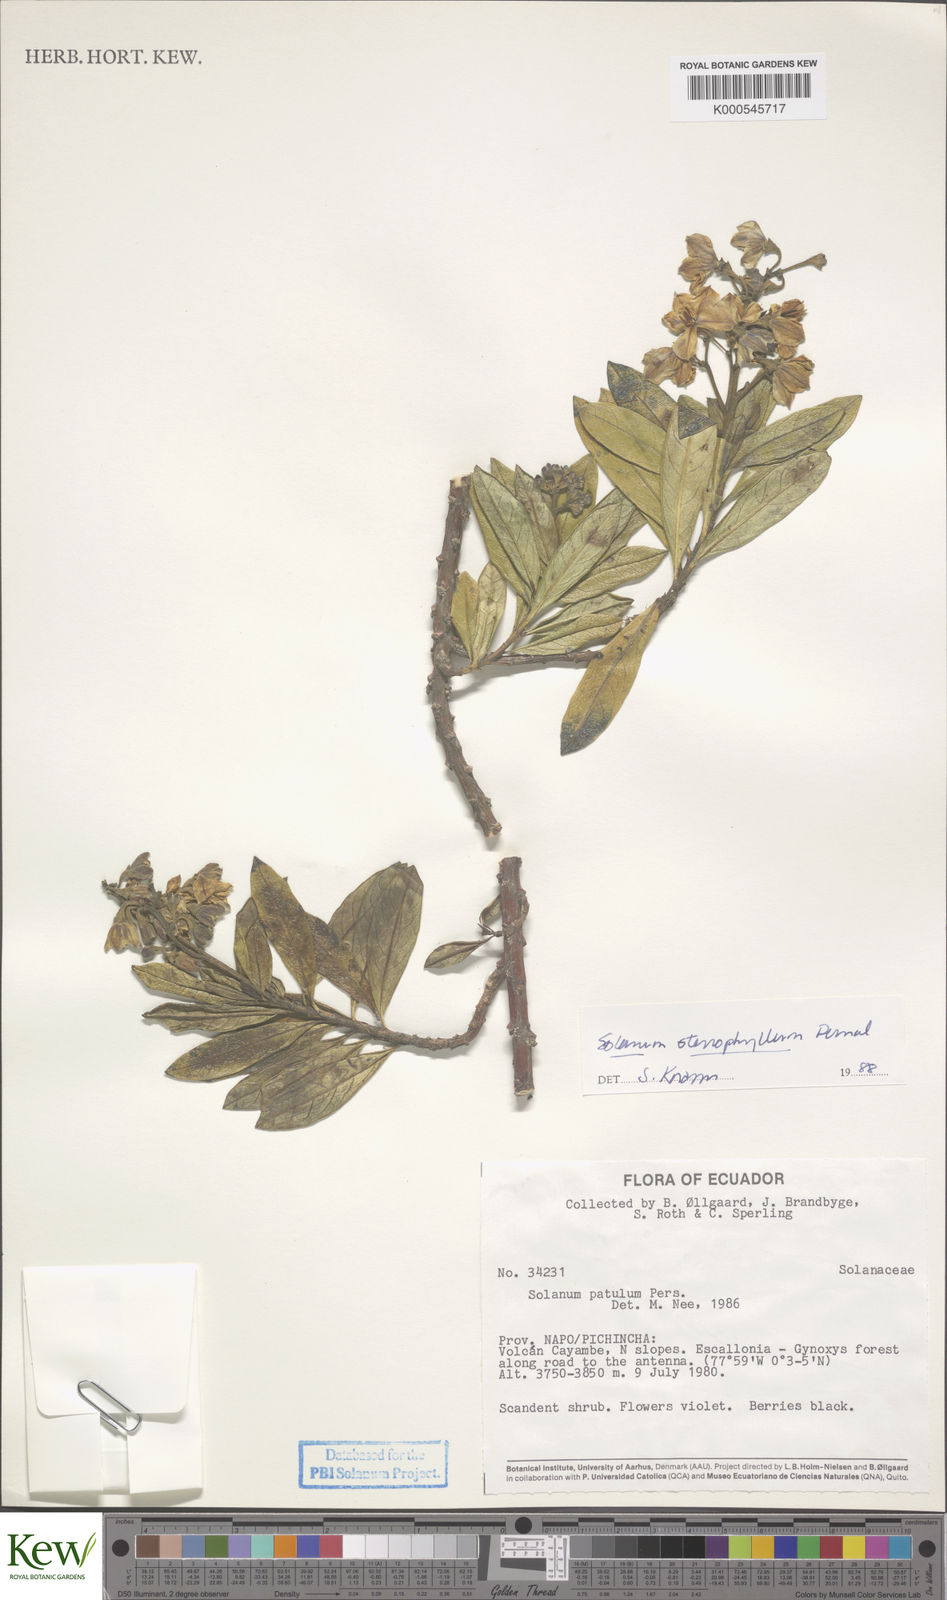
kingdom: Plantae
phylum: Tracheophyta
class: Magnoliopsida
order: Solanales
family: Solanaceae
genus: Solanum
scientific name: Solanum stenophyllum
